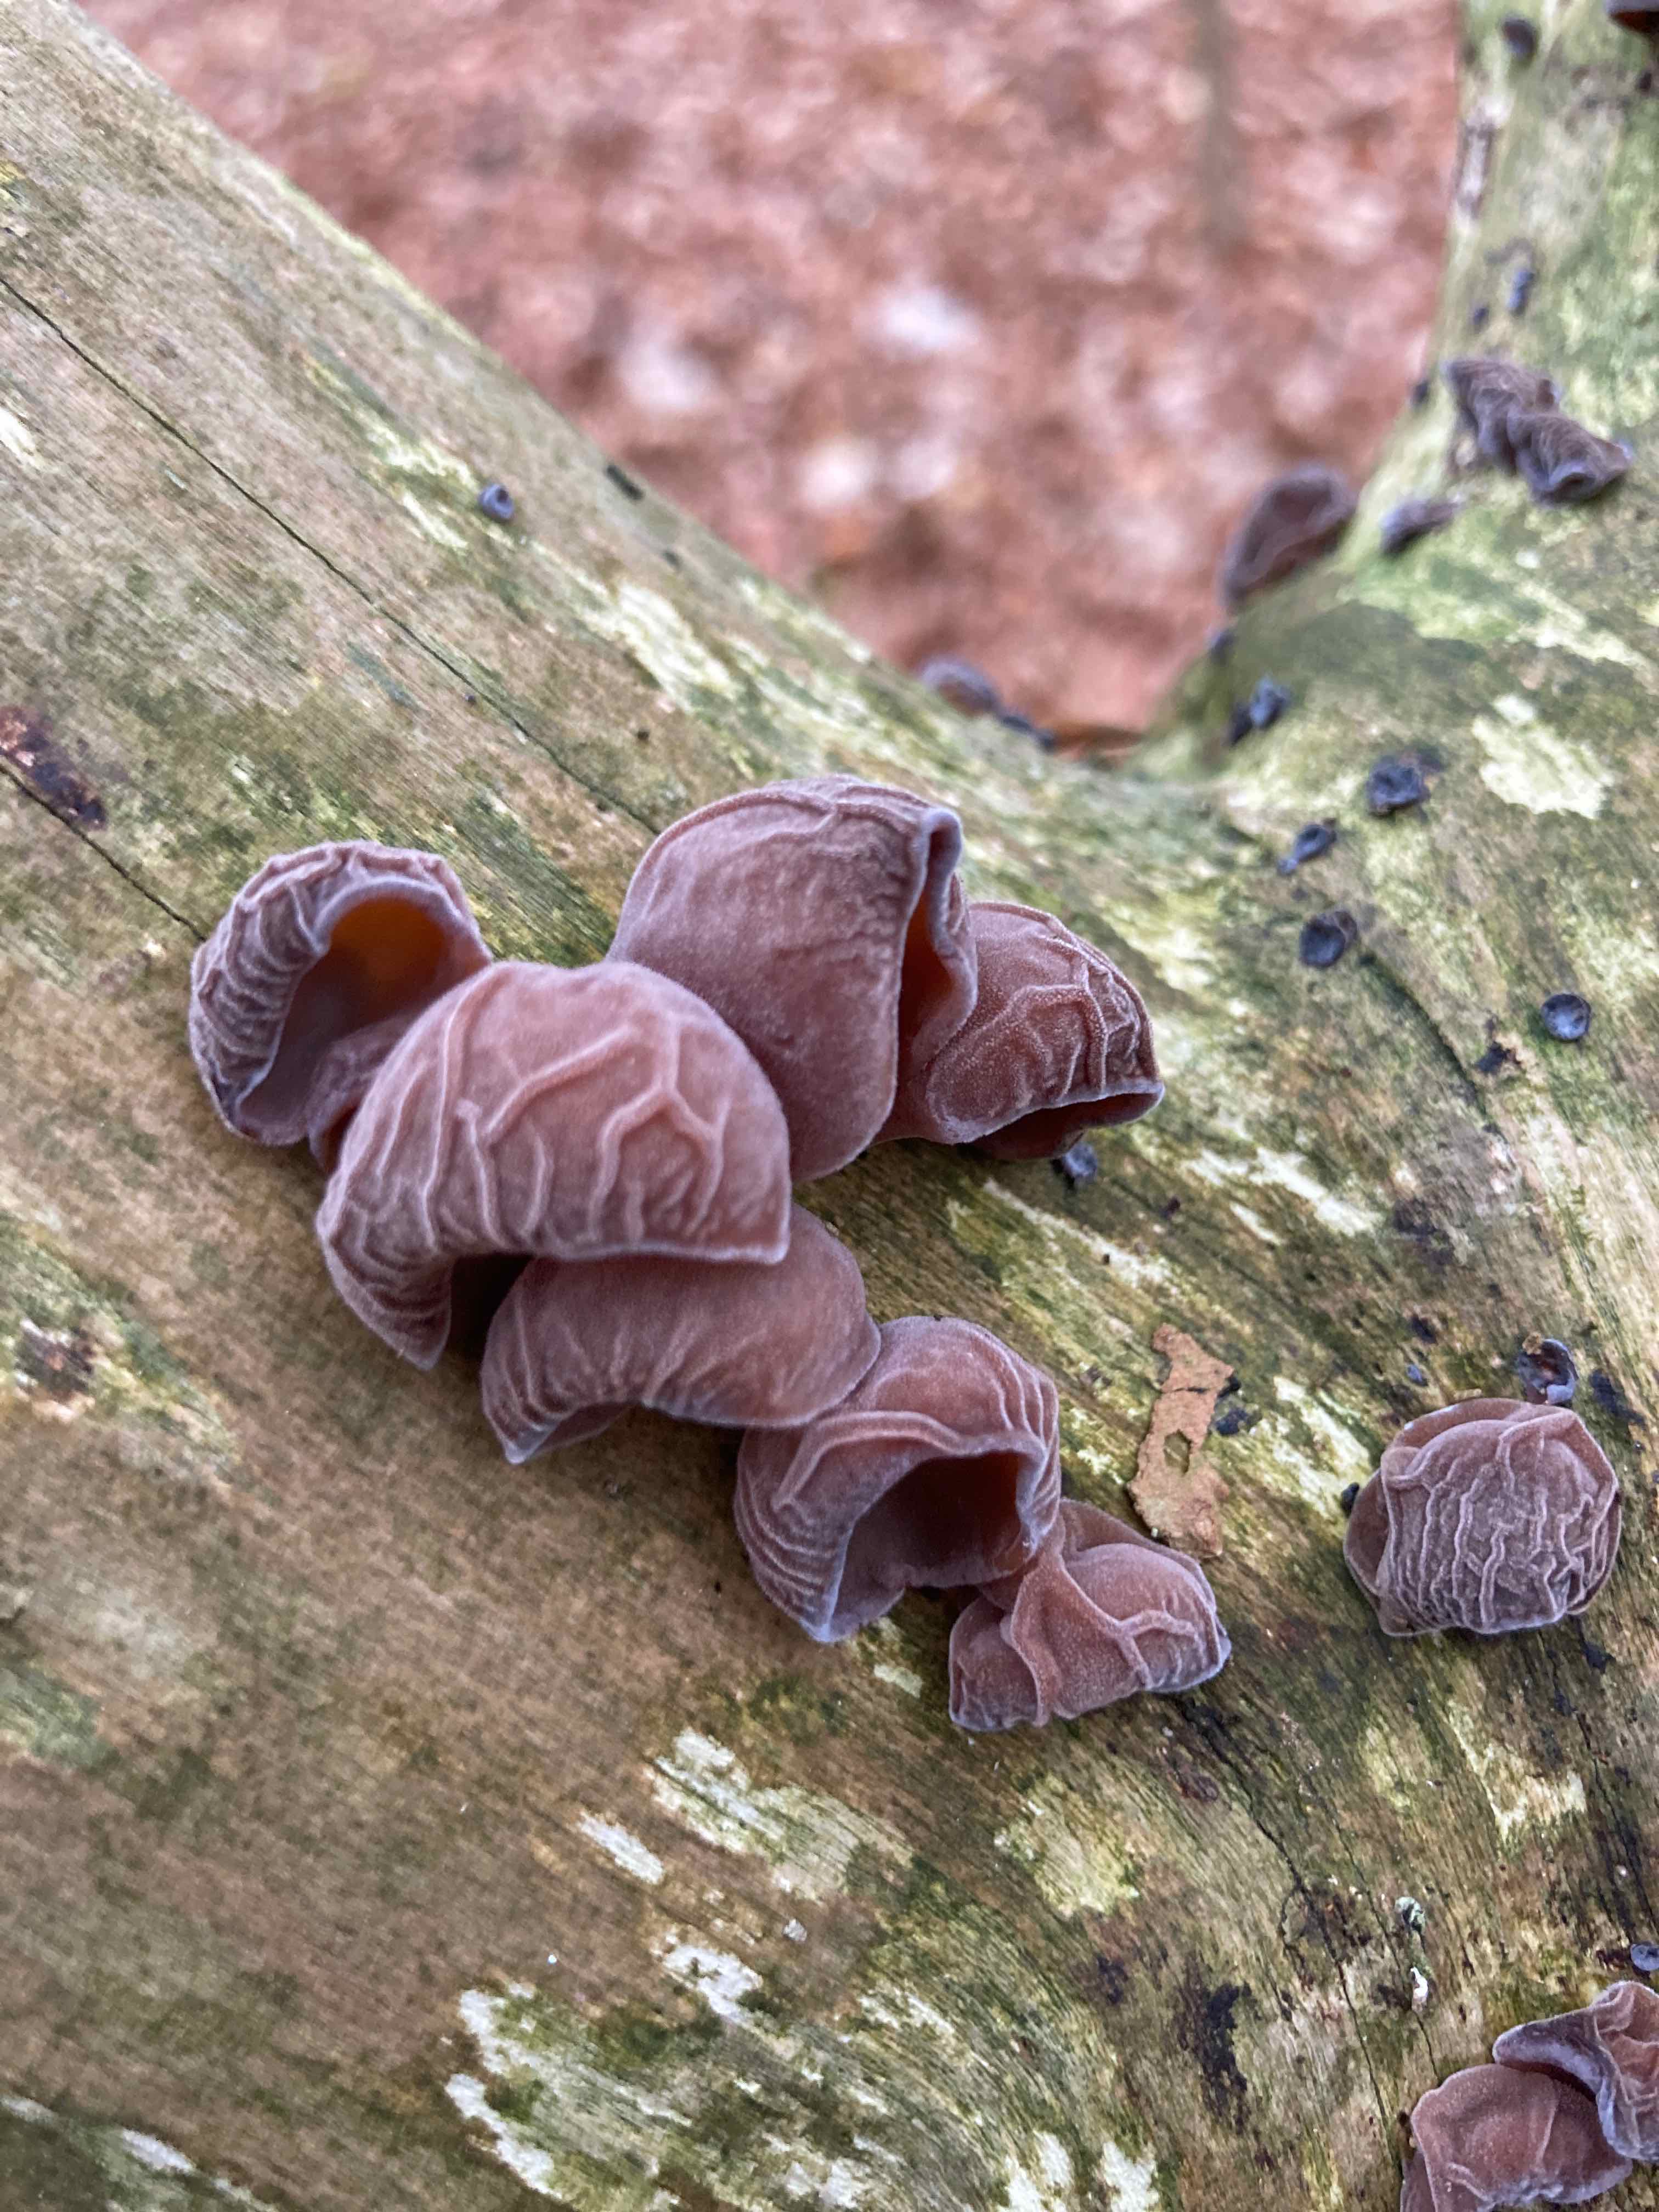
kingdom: Fungi
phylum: Basidiomycota
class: Agaricomycetes
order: Auriculariales
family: Auriculariaceae
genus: Auricularia
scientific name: Auricularia auricula-judae
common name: almindelig judasøre
